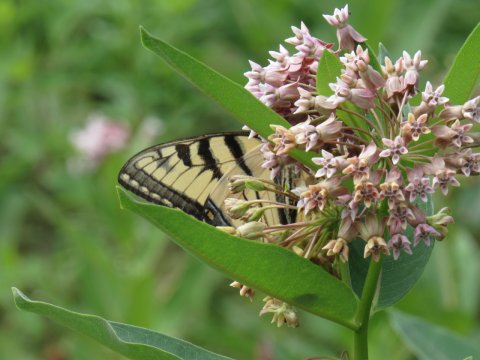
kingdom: Animalia
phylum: Arthropoda
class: Insecta
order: Lepidoptera
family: Papilionidae
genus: Pterourus
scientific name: Pterourus
